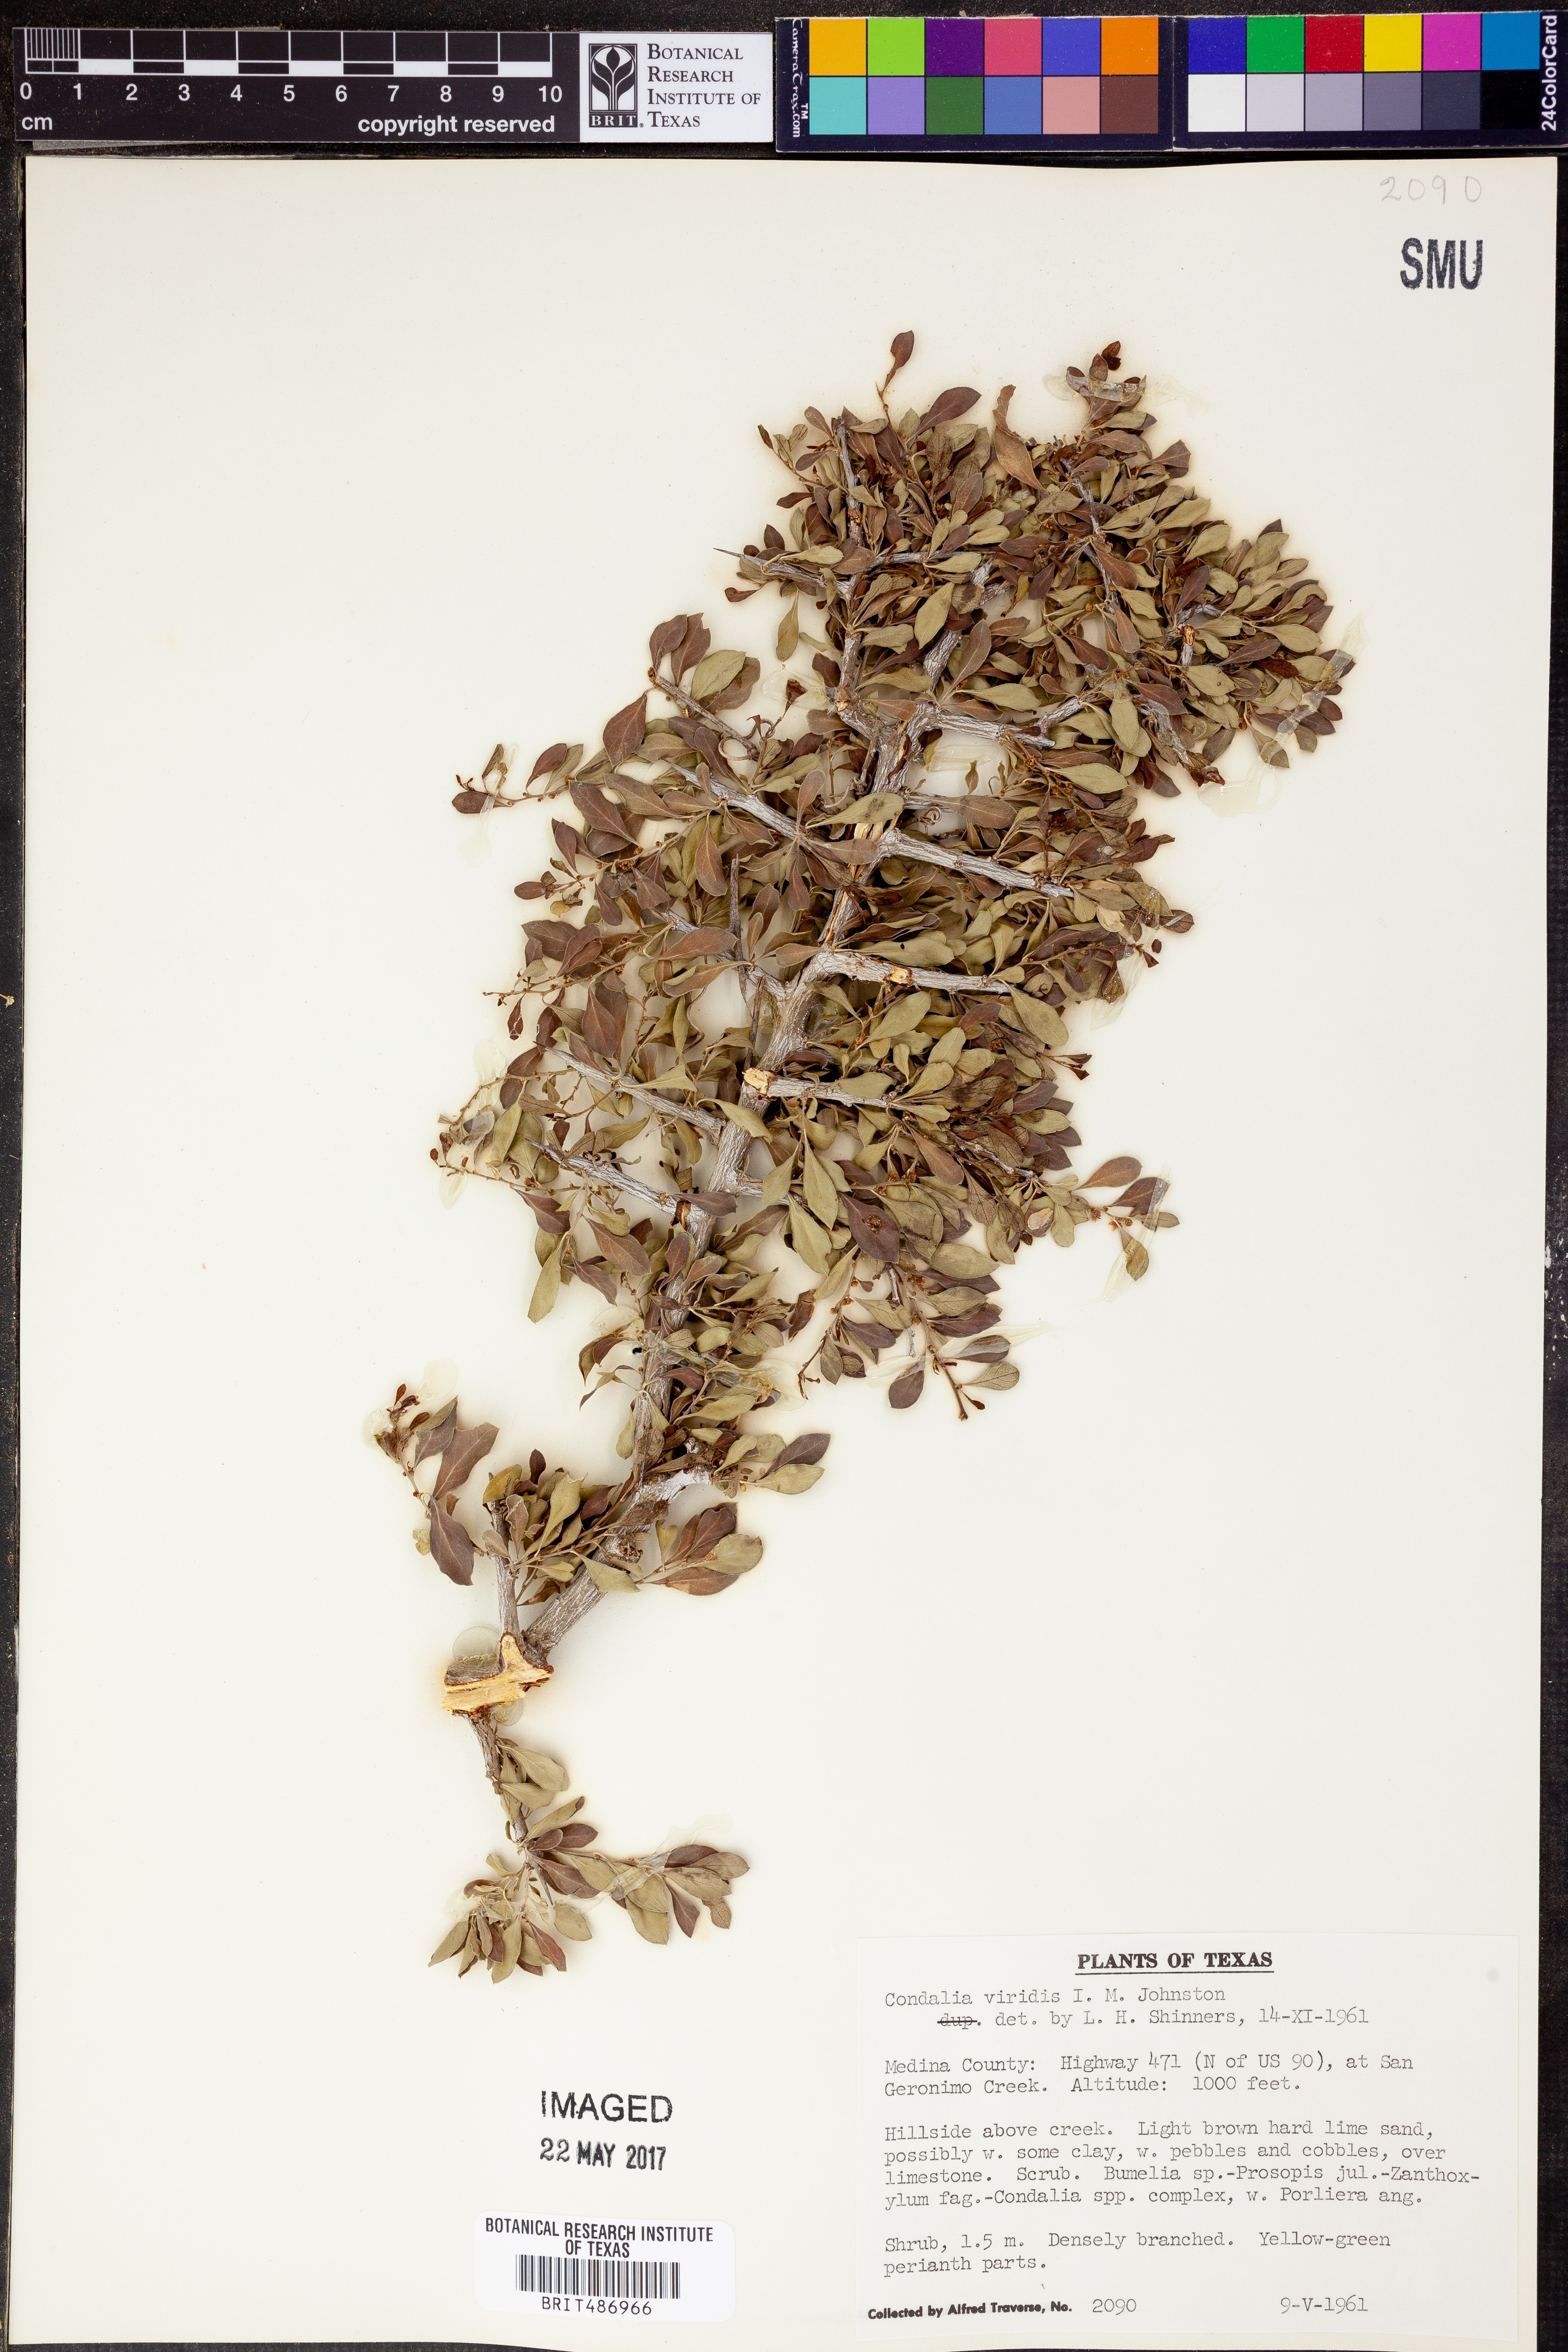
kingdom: Plantae
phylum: Tracheophyta
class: Magnoliopsida
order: Rosales
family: Rhamnaceae
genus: Condalia
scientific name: Condalia viridis
